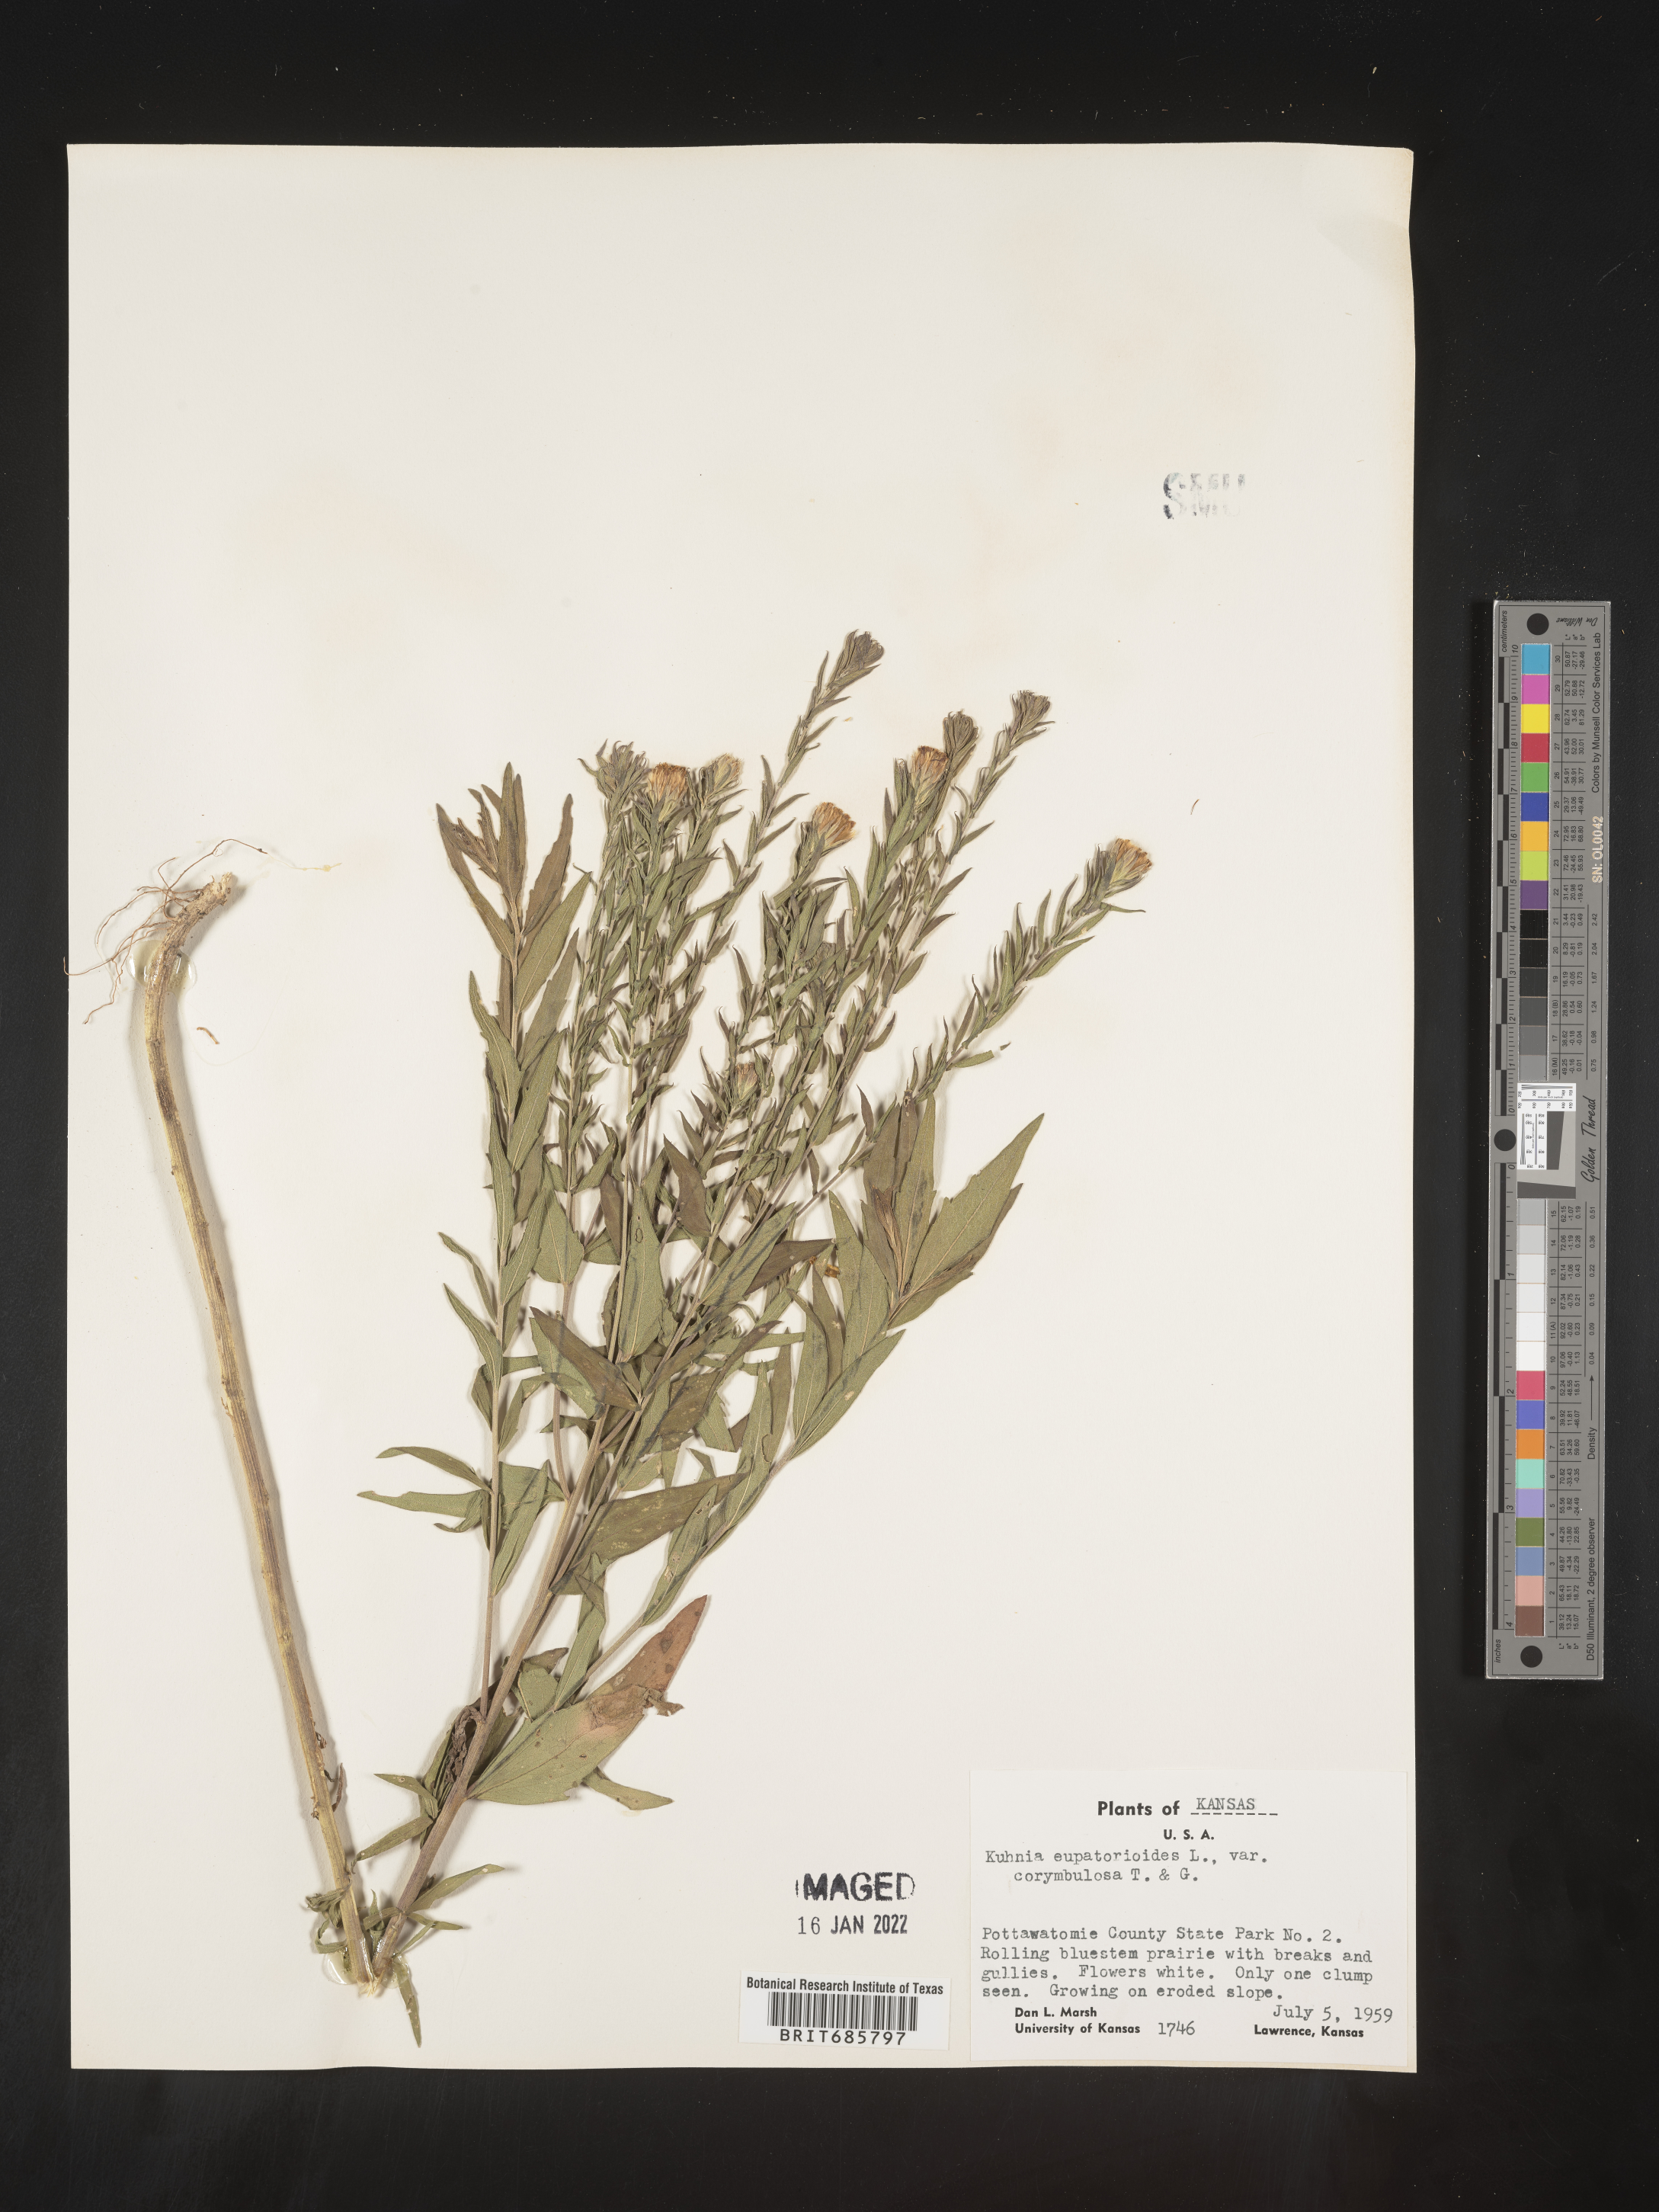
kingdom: Plantae
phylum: Tracheophyta
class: Magnoliopsida
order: Asterales
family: Asteraceae
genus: Brickellia
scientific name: Brickellia eupatorioides
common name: False boneset
